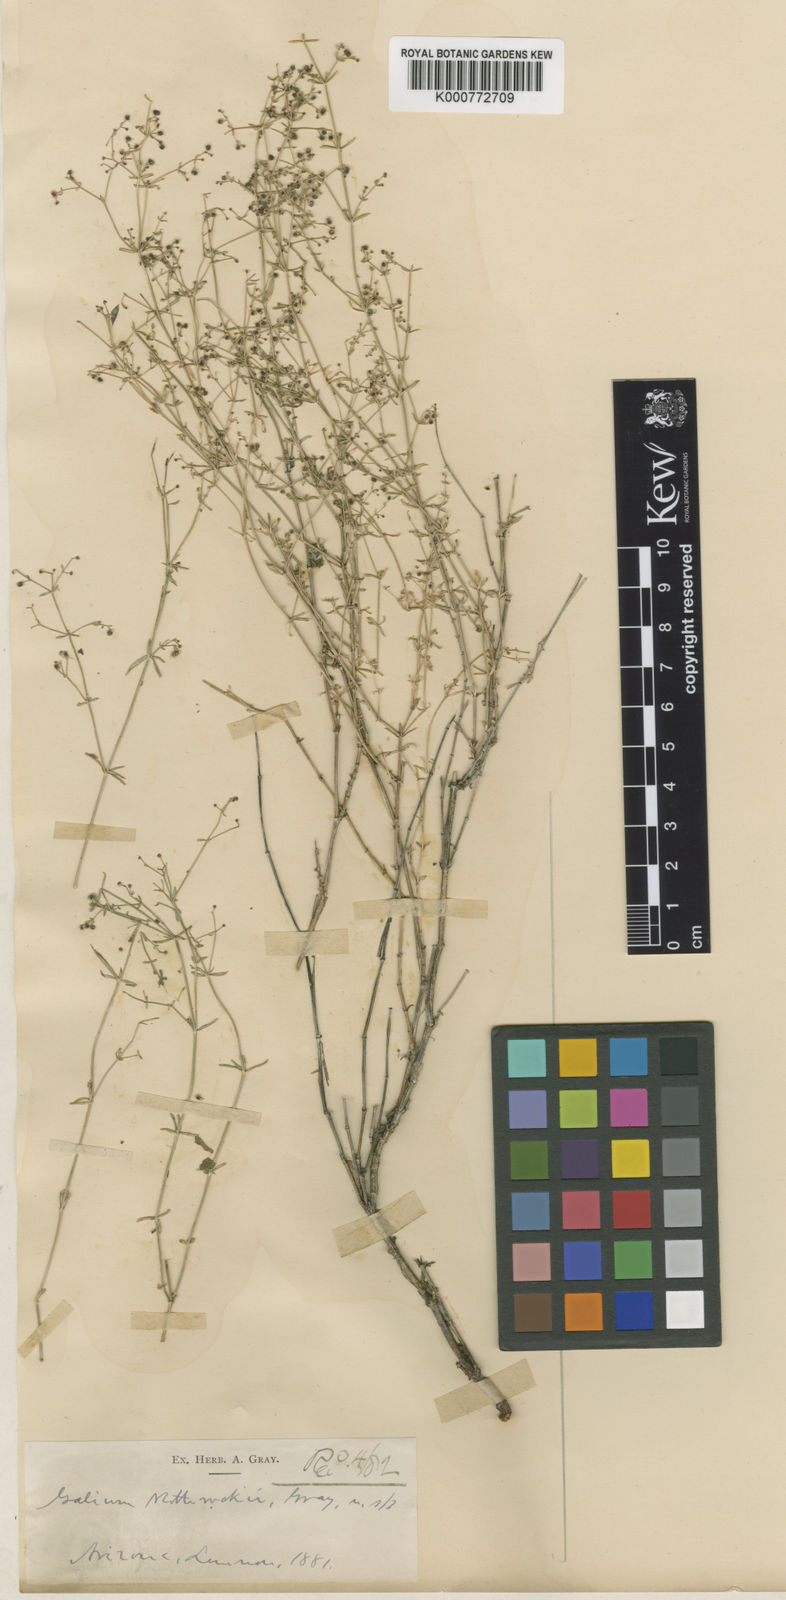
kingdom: Plantae
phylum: Tracheophyta
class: Magnoliopsida
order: Gentianales
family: Rubiaceae
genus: Galium
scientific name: Galium wrightii
